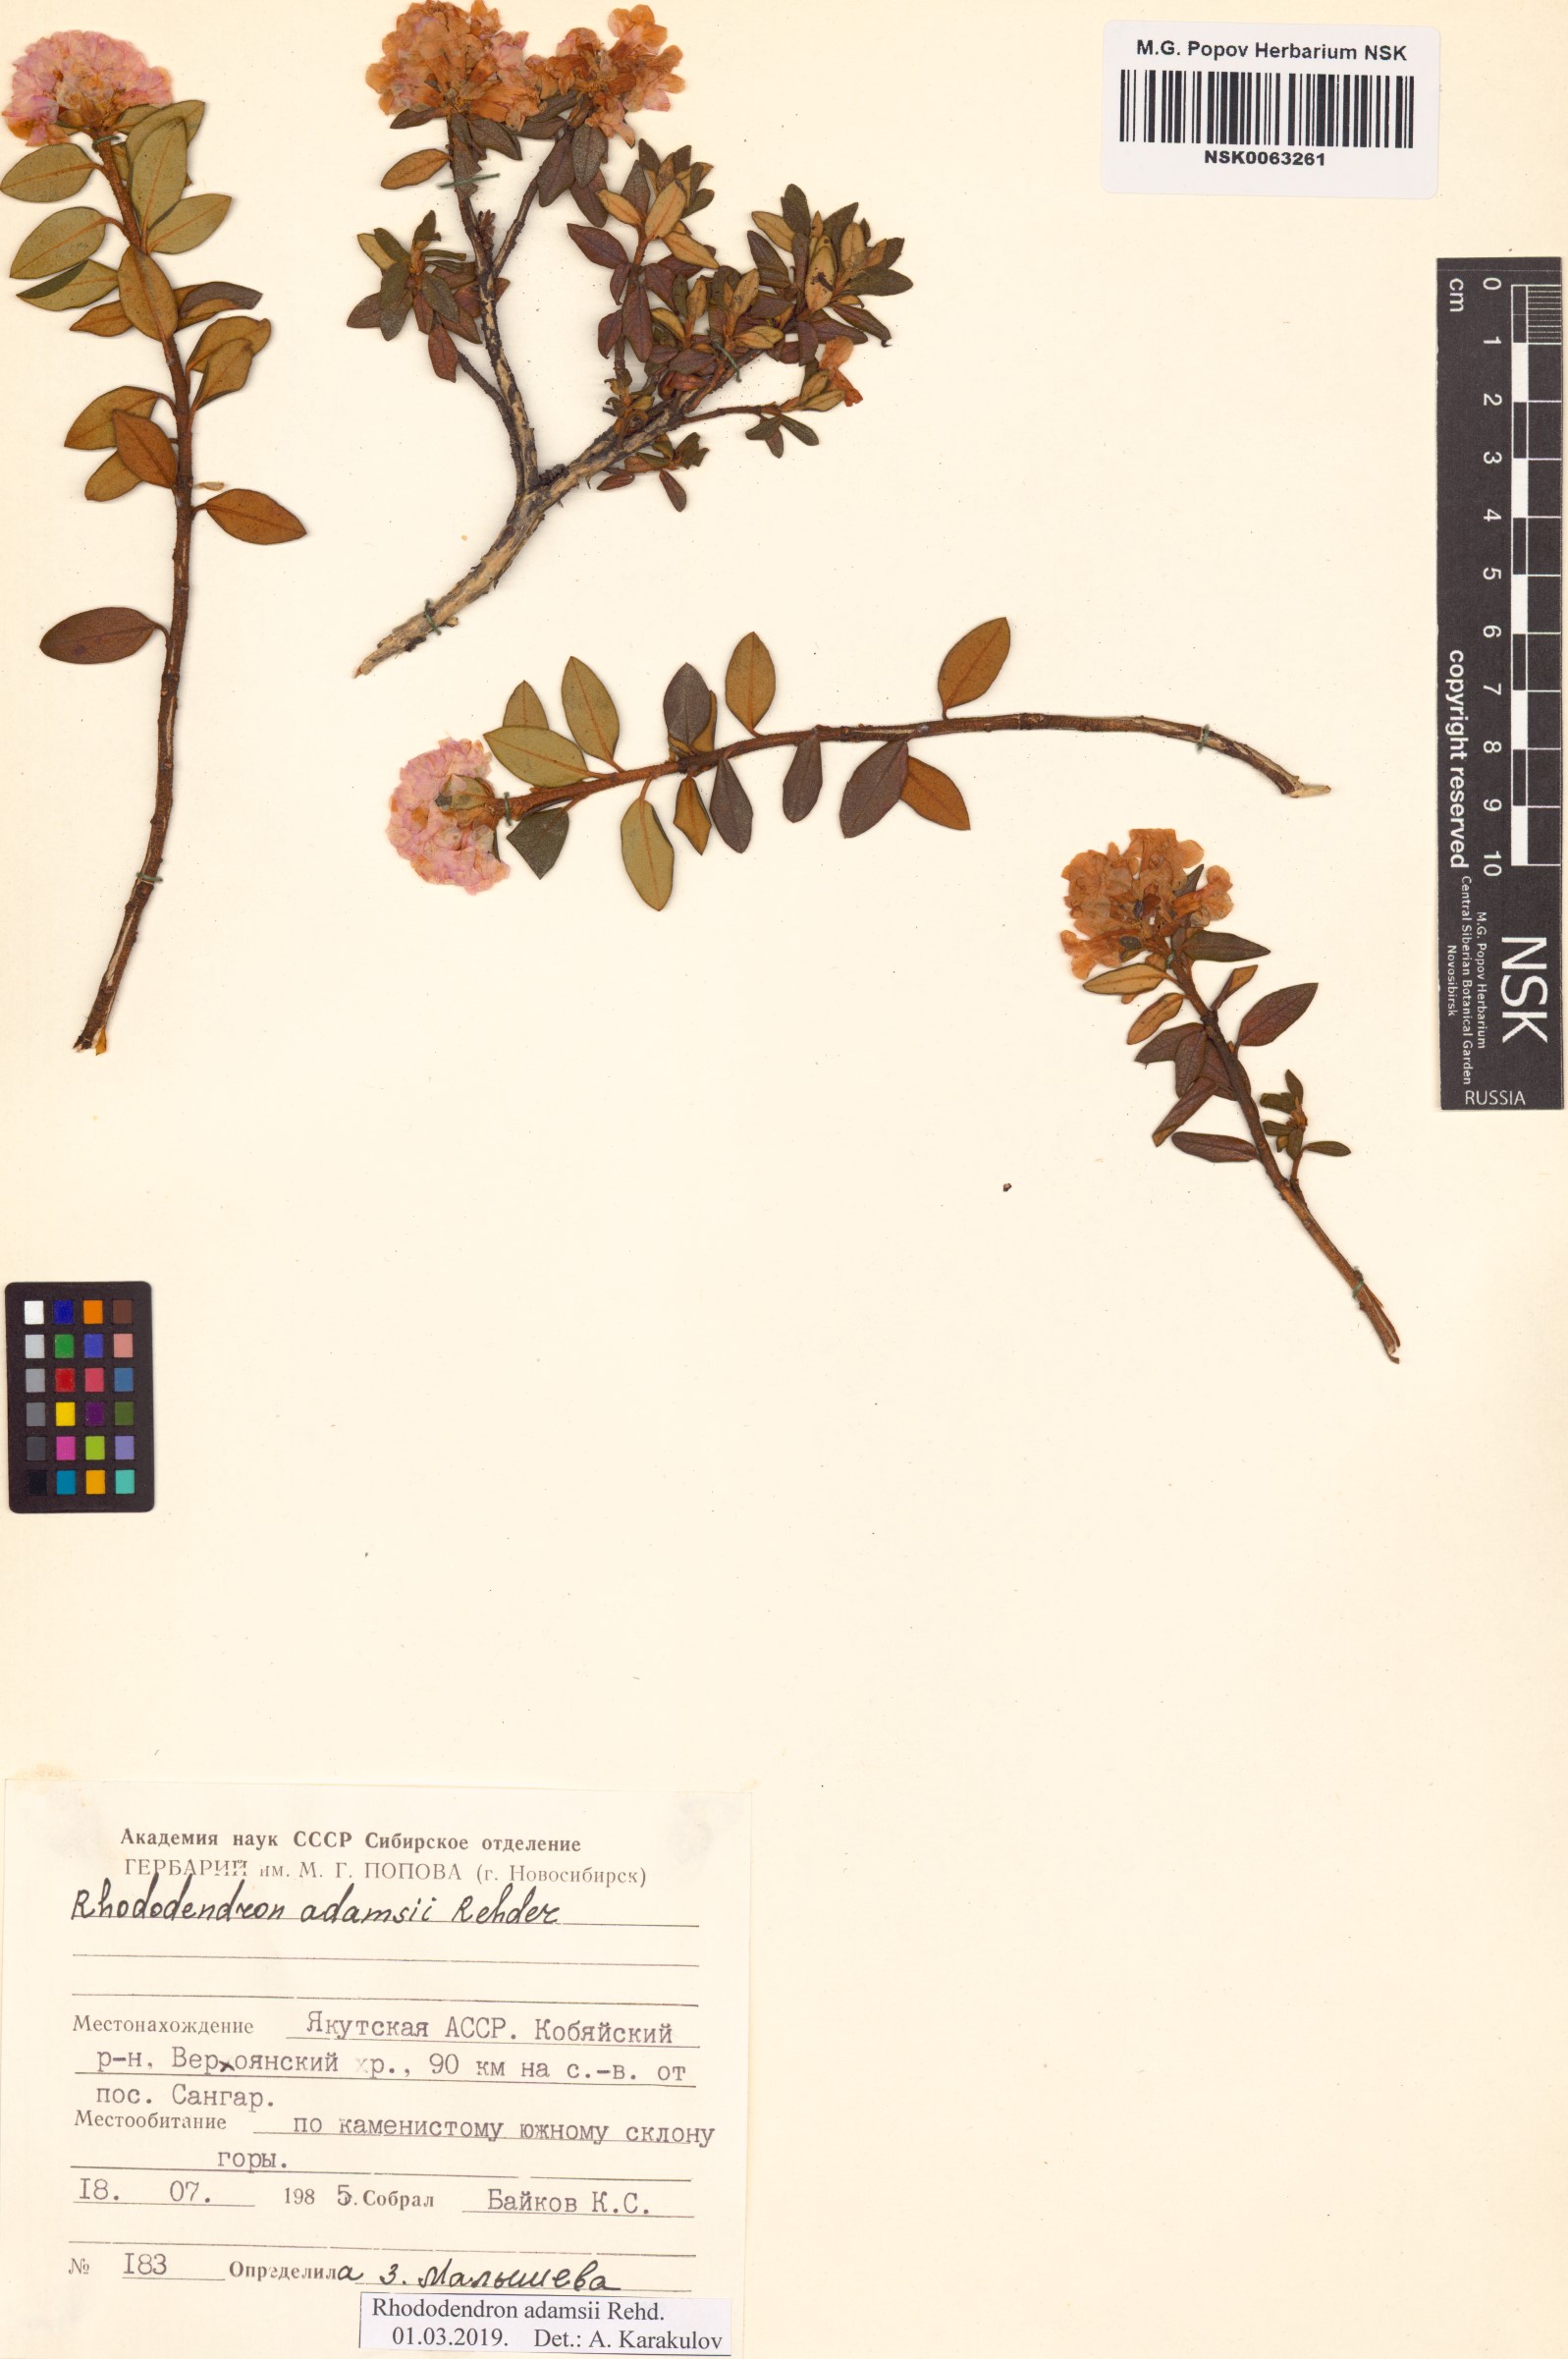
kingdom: Plantae
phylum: Tracheophyta
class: Magnoliopsida
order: Ericales
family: Ericaceae
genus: Rhododendron
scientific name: Rhododendron adamsii
